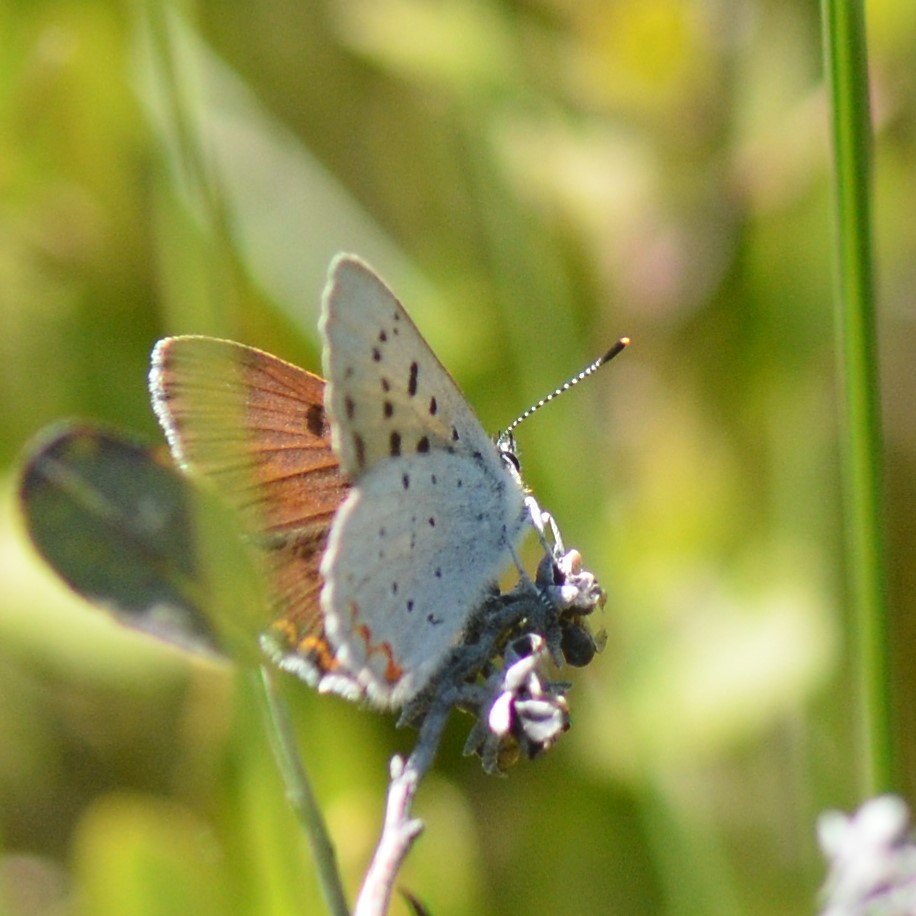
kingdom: Animalia
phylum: Arthropoda
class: Insecta
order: Lepidoptera
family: Sesiidae
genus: Sesia
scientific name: Sesia Lycaena epixanthe
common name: Bog Copper
